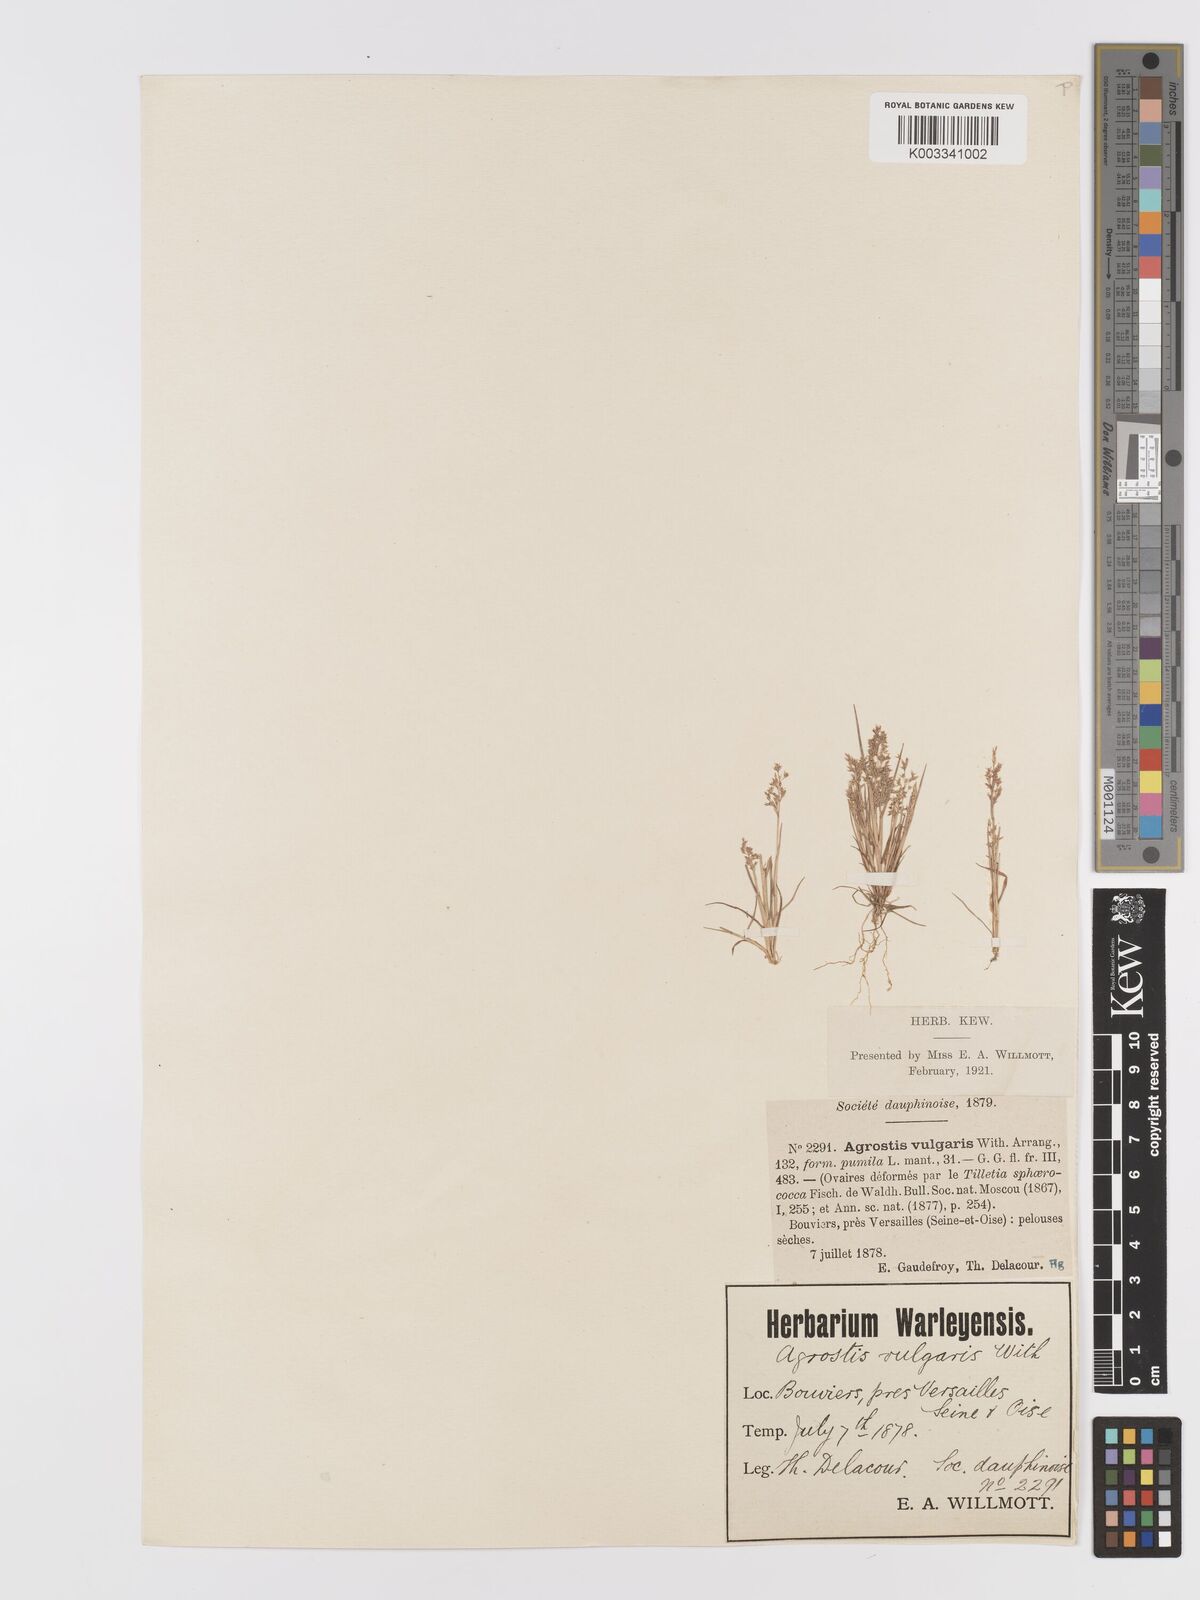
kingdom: Plantae
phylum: Tracheophyta
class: Liliopsida
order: Poales
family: Poaceae
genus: Agrostis
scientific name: Agrostis capillaris
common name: Colonial bentgrass
